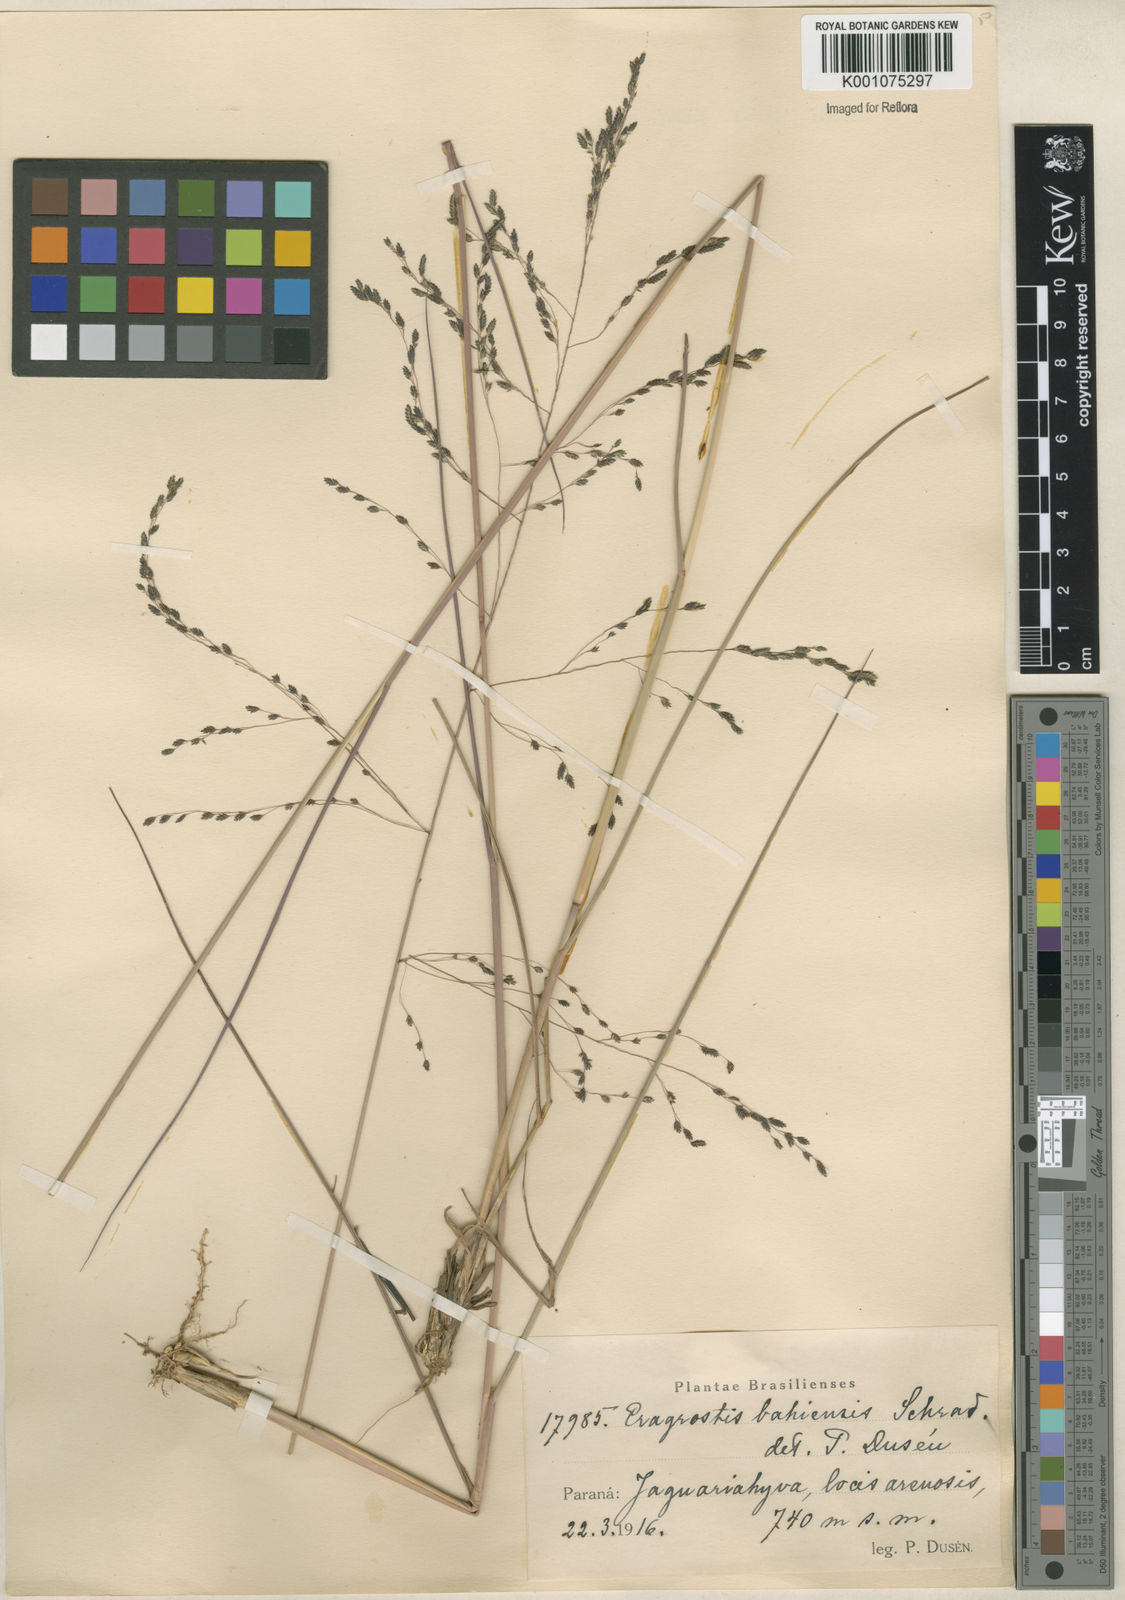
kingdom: Plantae
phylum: Tracheophyta
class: Liliopsida
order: Poales
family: Poaceae
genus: Eragrostis
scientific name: Eragrostis bahiensis
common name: Bahia lovegrass
